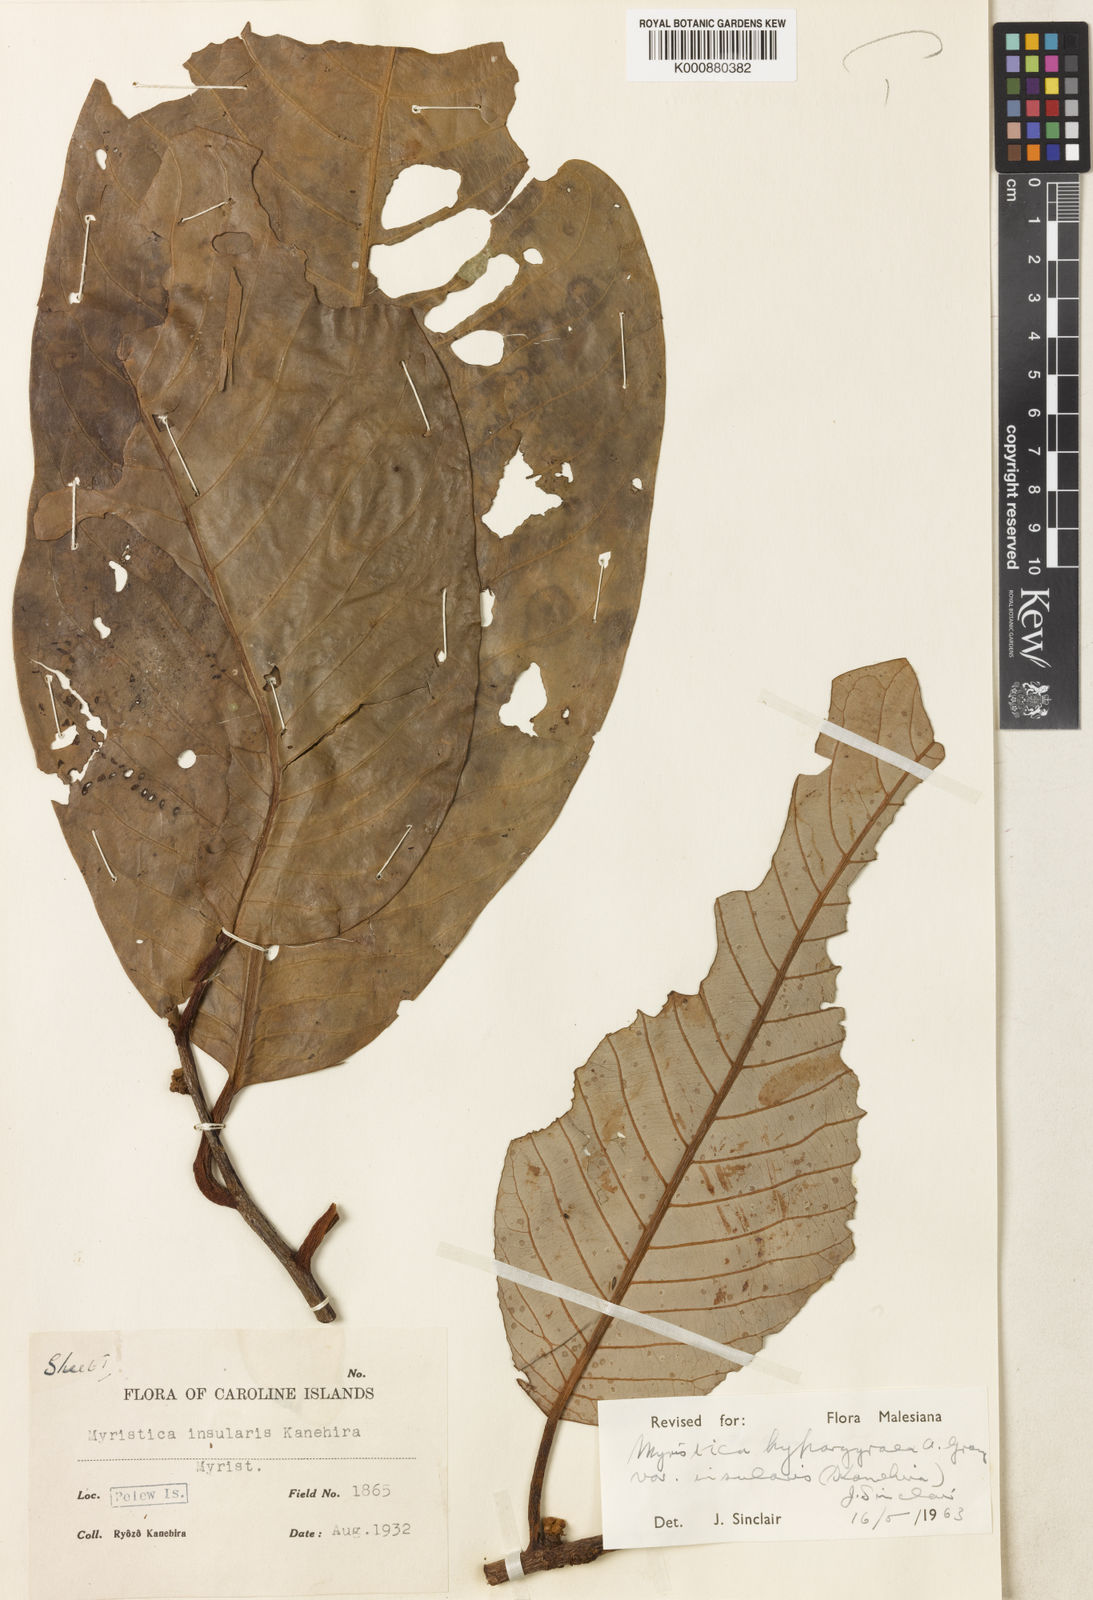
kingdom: Plantae
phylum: Tracheophyta
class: Magnoliopsida
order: Magnoliales
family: Myristicaceae
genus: Myristica
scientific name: Myristica hypargyraea
